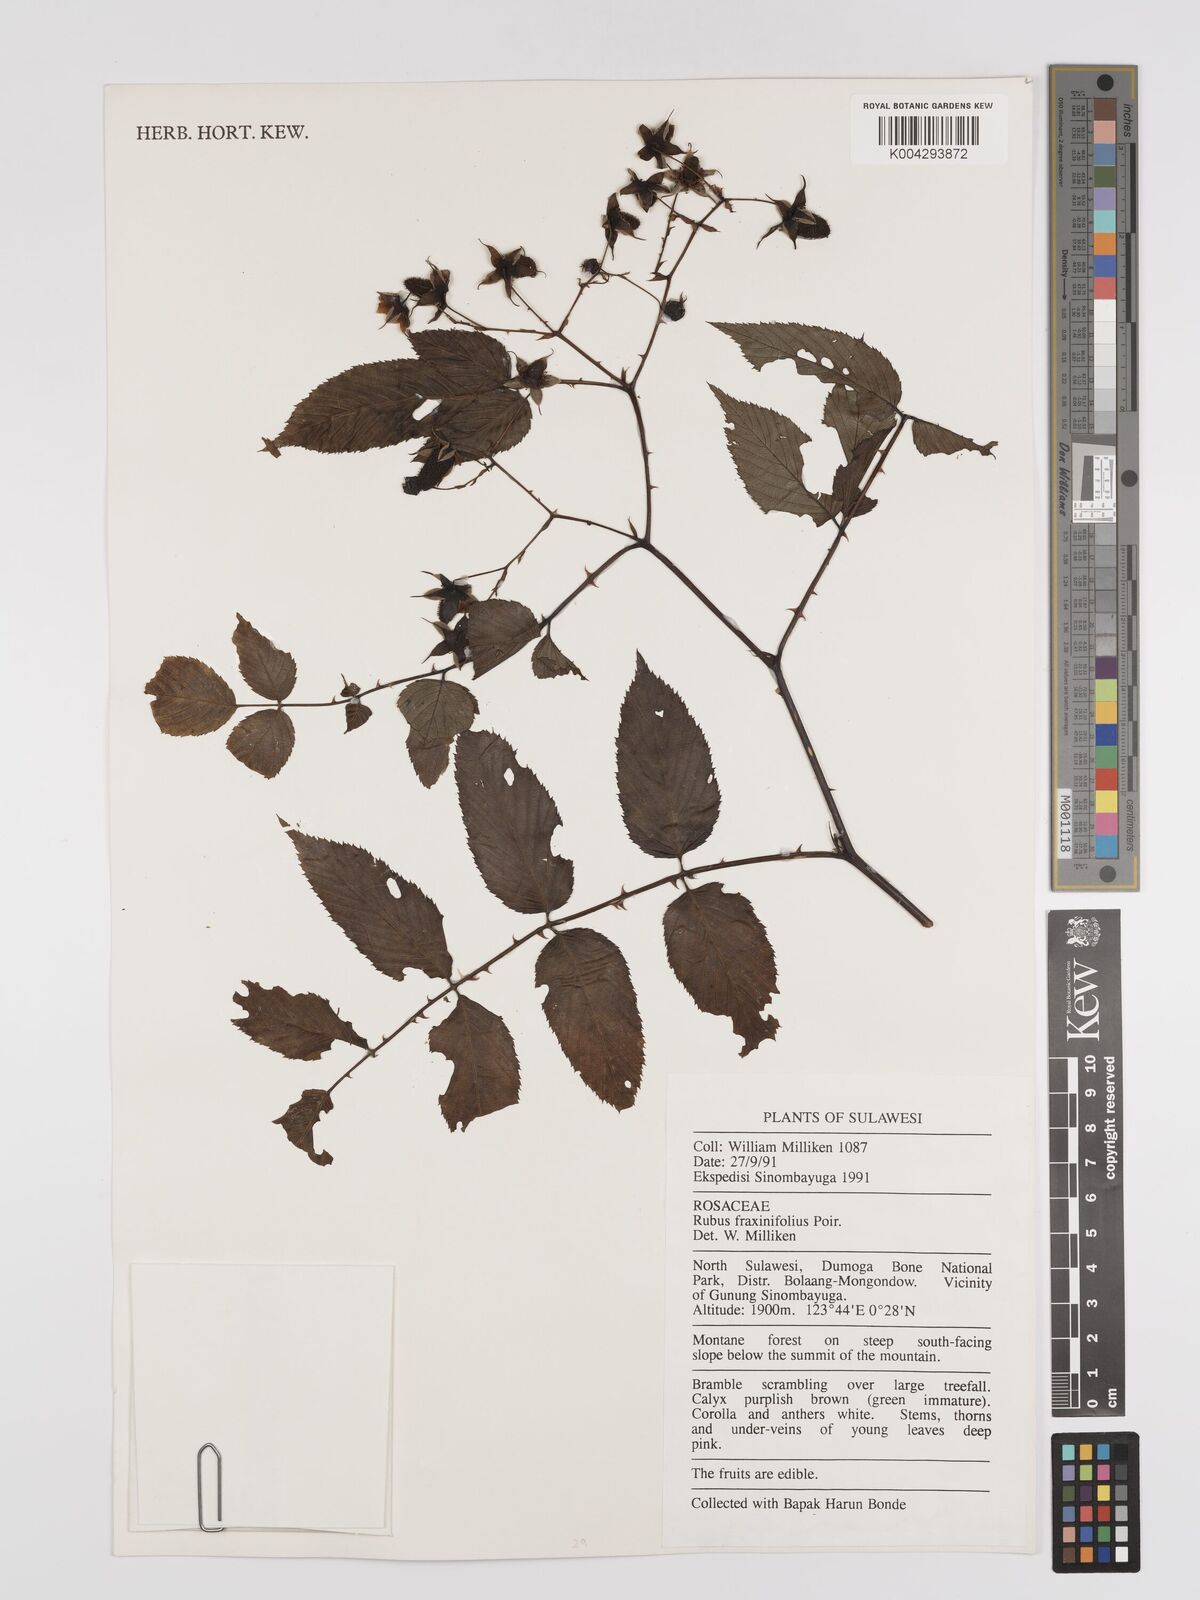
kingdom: Plantae
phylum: Tracheophyta
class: Magnoliopsida
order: Rosales
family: Rosaceae
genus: Rubus
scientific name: Rubus fraxinifolius
